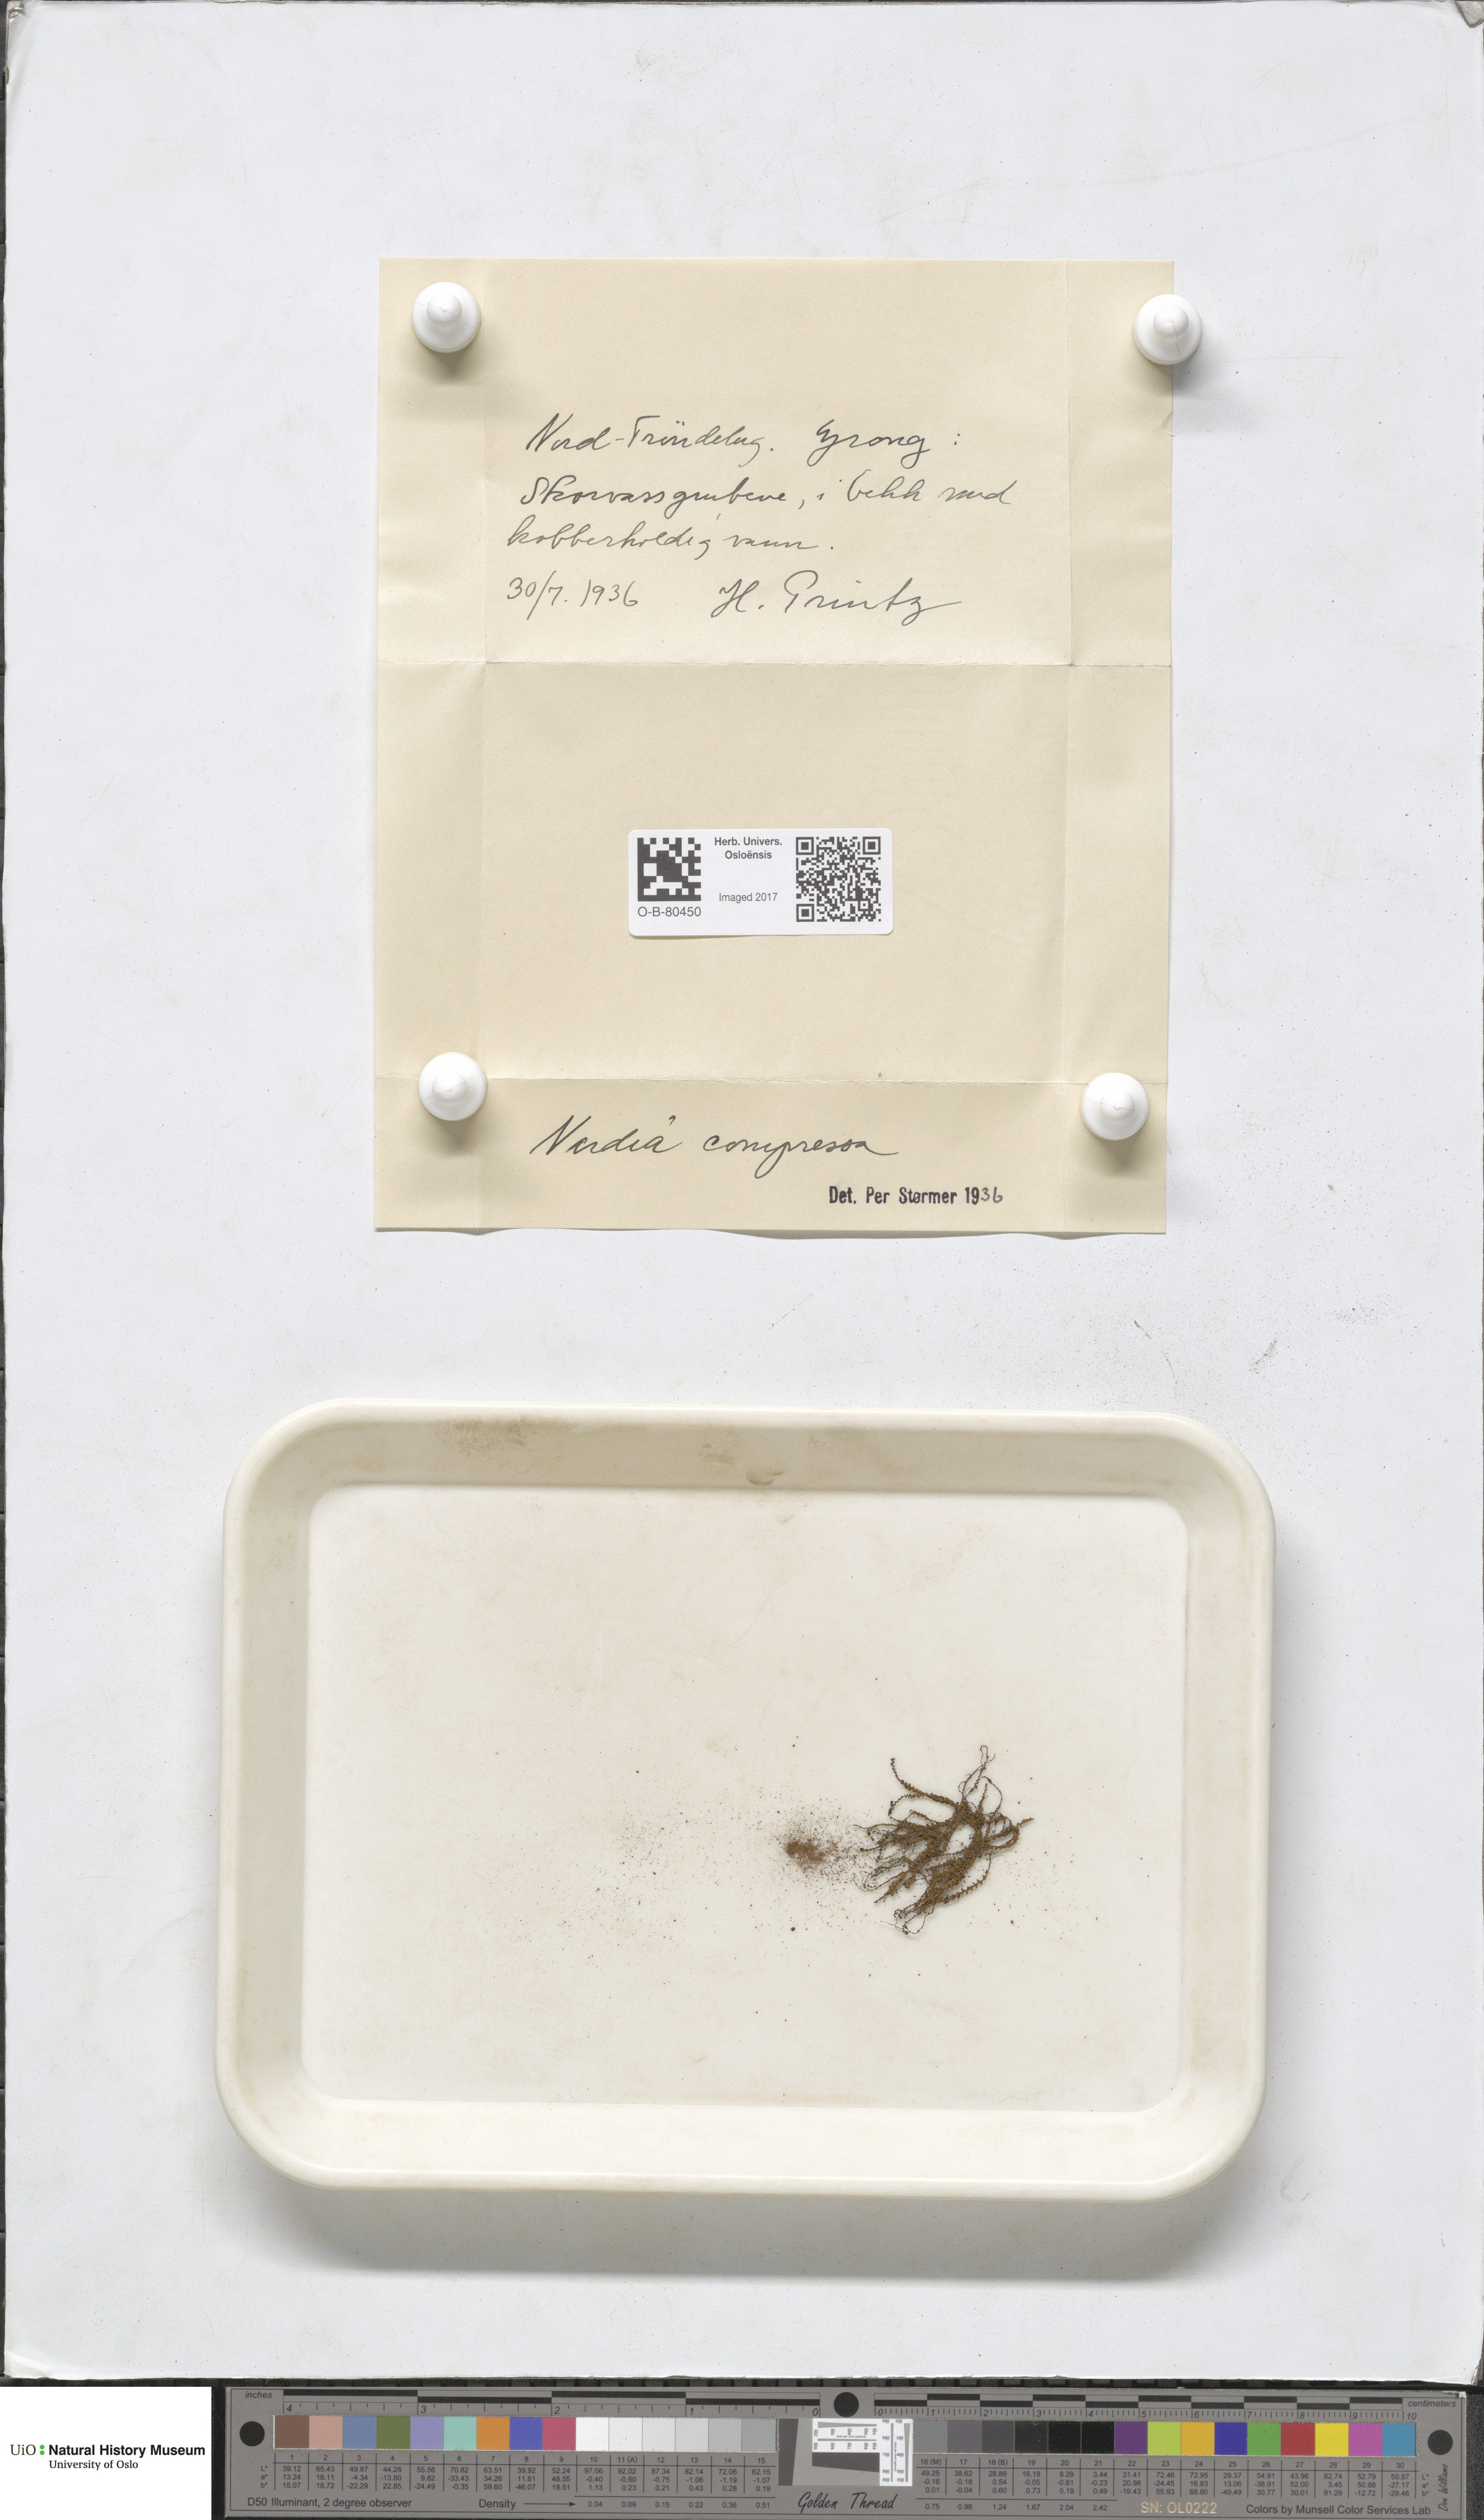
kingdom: Plantae
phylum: Marchantiophyta
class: Jungermanniopsida
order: Jungermanniales
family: Gymnomitriaceae
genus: Nardia
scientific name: Nardia compressa
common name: Compressed flapwort
